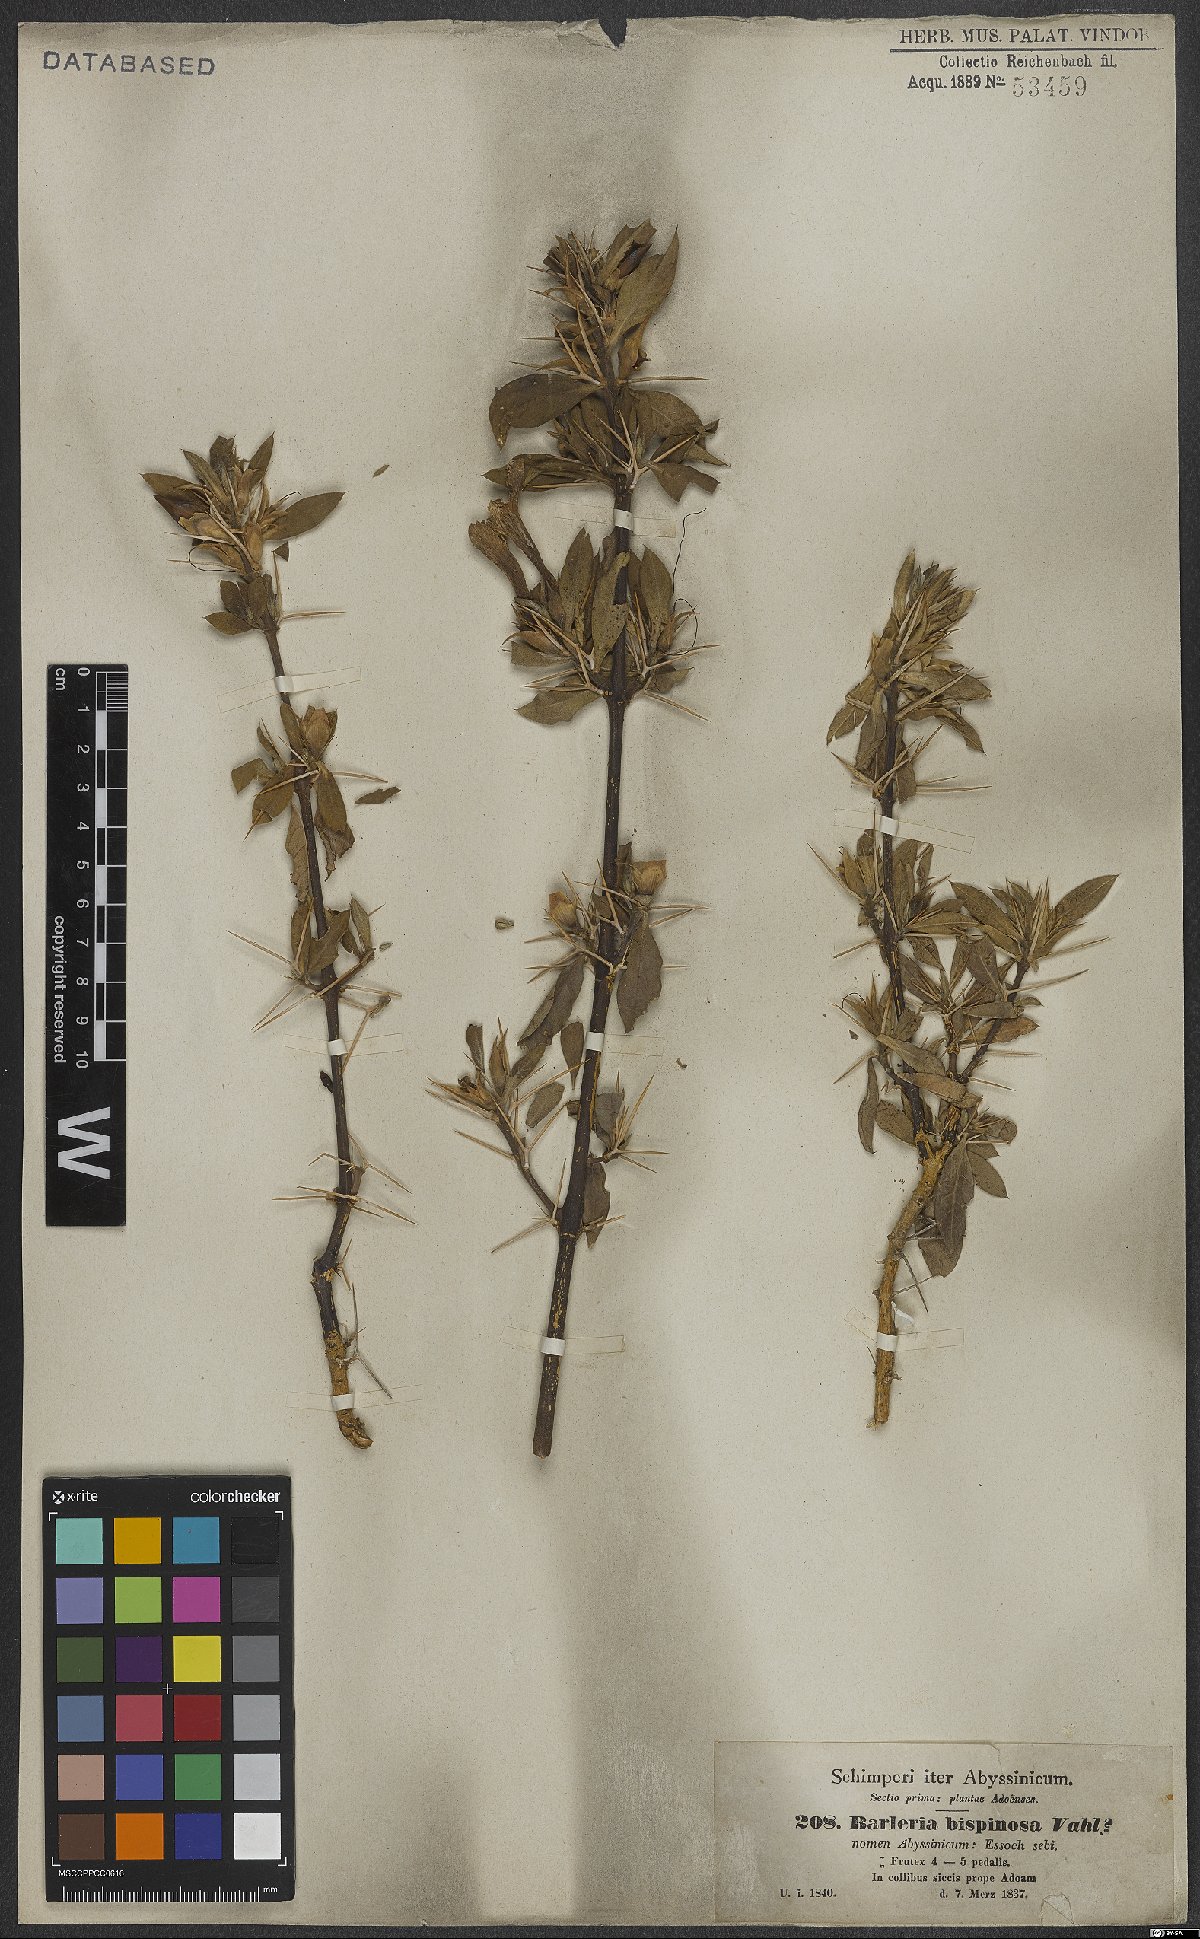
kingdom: Plantae
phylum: Tracheophyta
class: Magnoliopsida
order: Lamiales
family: Acanthaceae
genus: Barleria
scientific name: Barleria bispinosa
